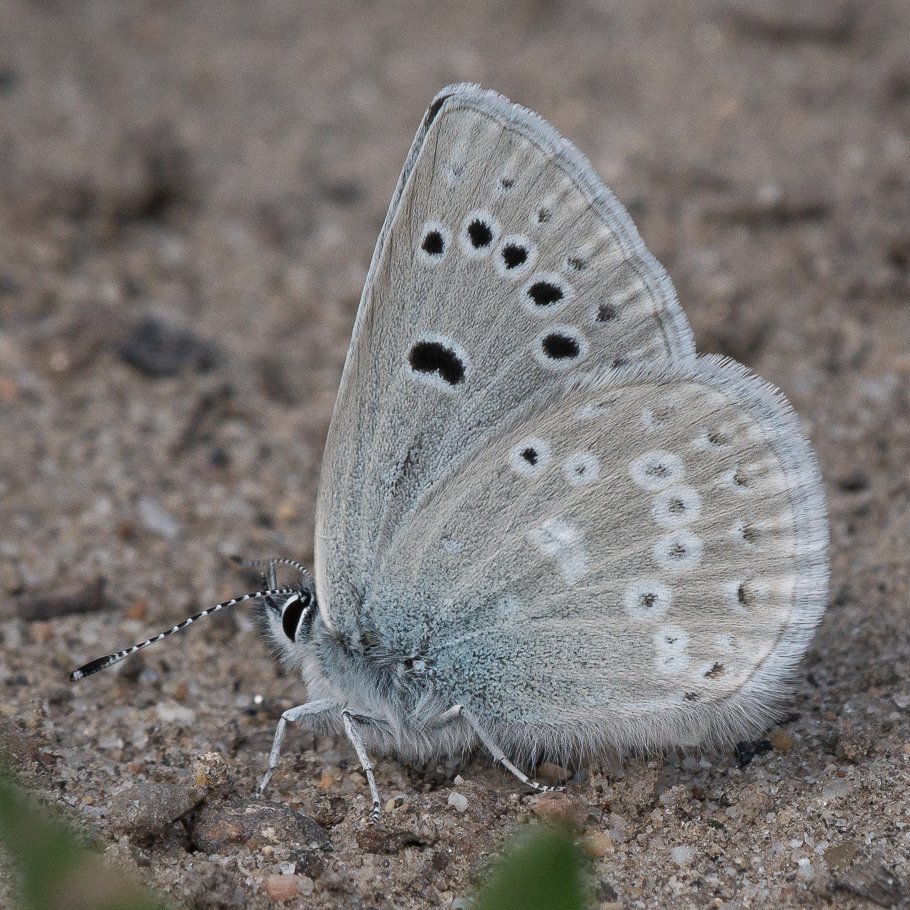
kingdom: Animalia
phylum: Arthropoda
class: Insecta
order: Lepidoptera
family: Lycaenidae
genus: Icaricia
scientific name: Icaricia icarioides
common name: Boisduval's Blue
